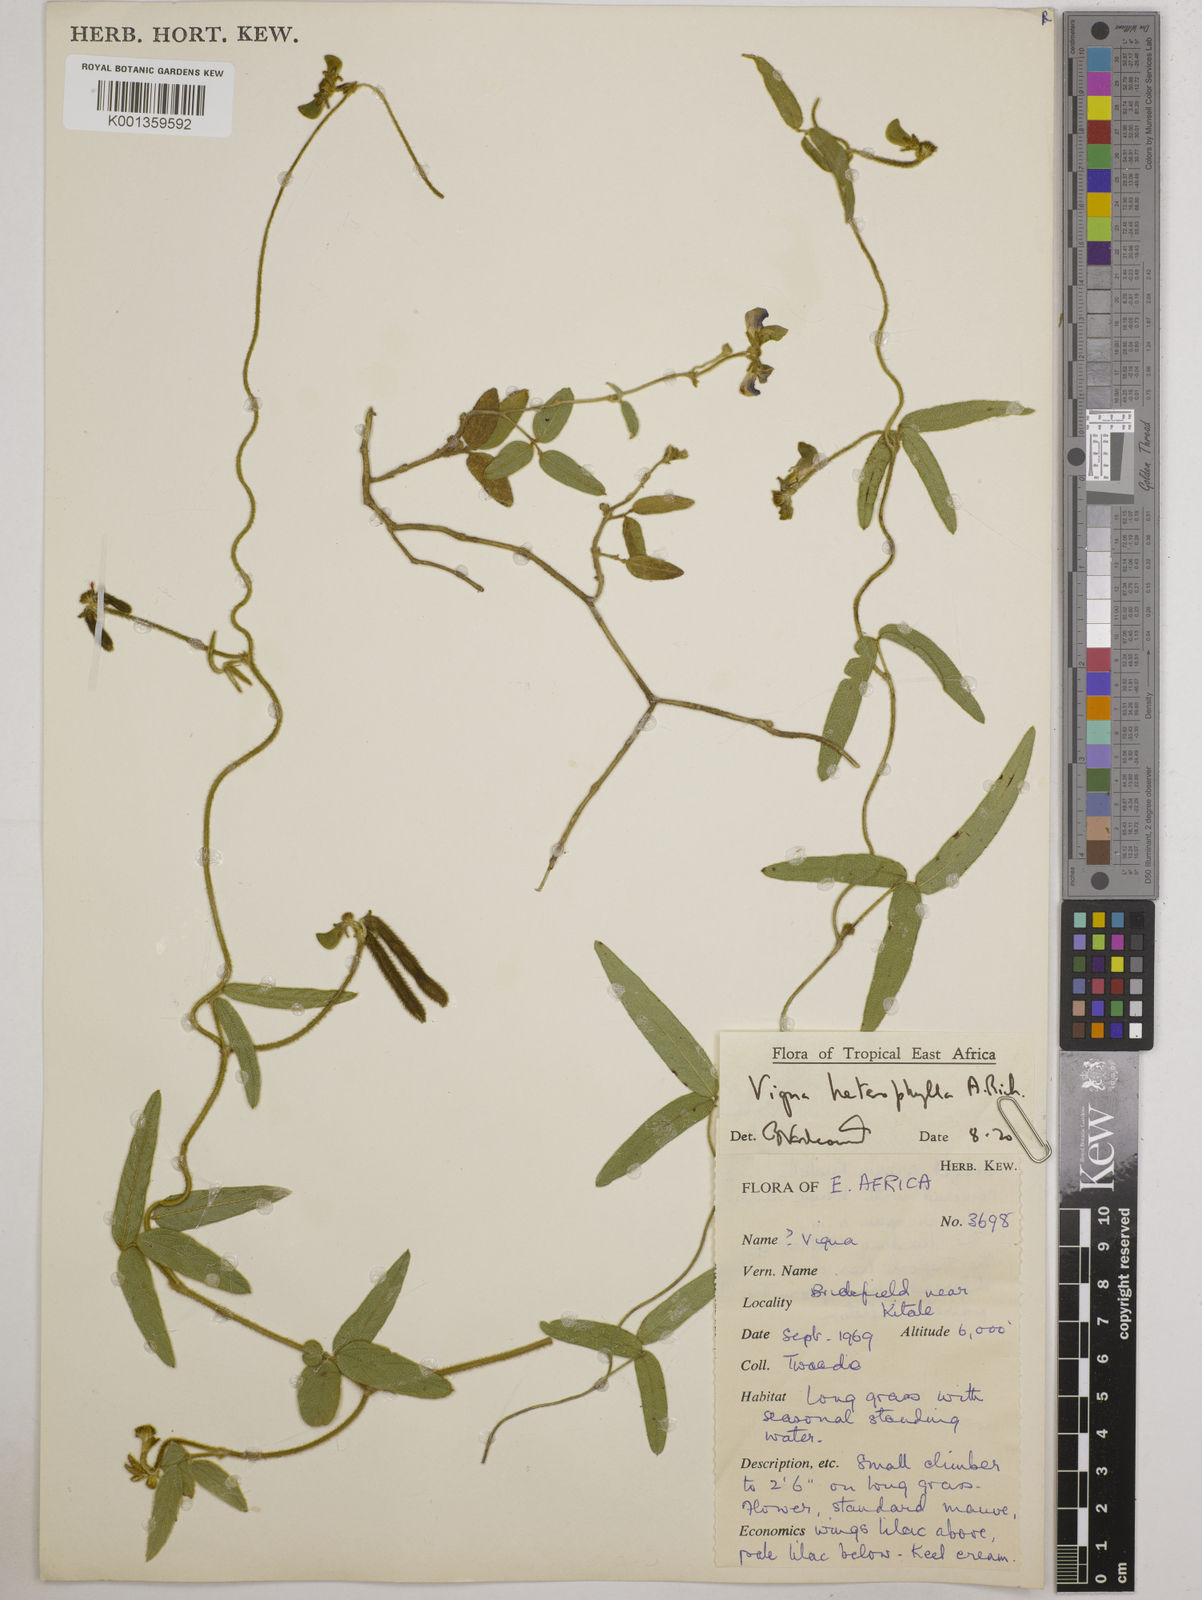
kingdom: Plantae
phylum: Tracheophyta
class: Magnoliopsida
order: Fabales
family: Fabaceae
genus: Vigna
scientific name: Vigna heterophylla
